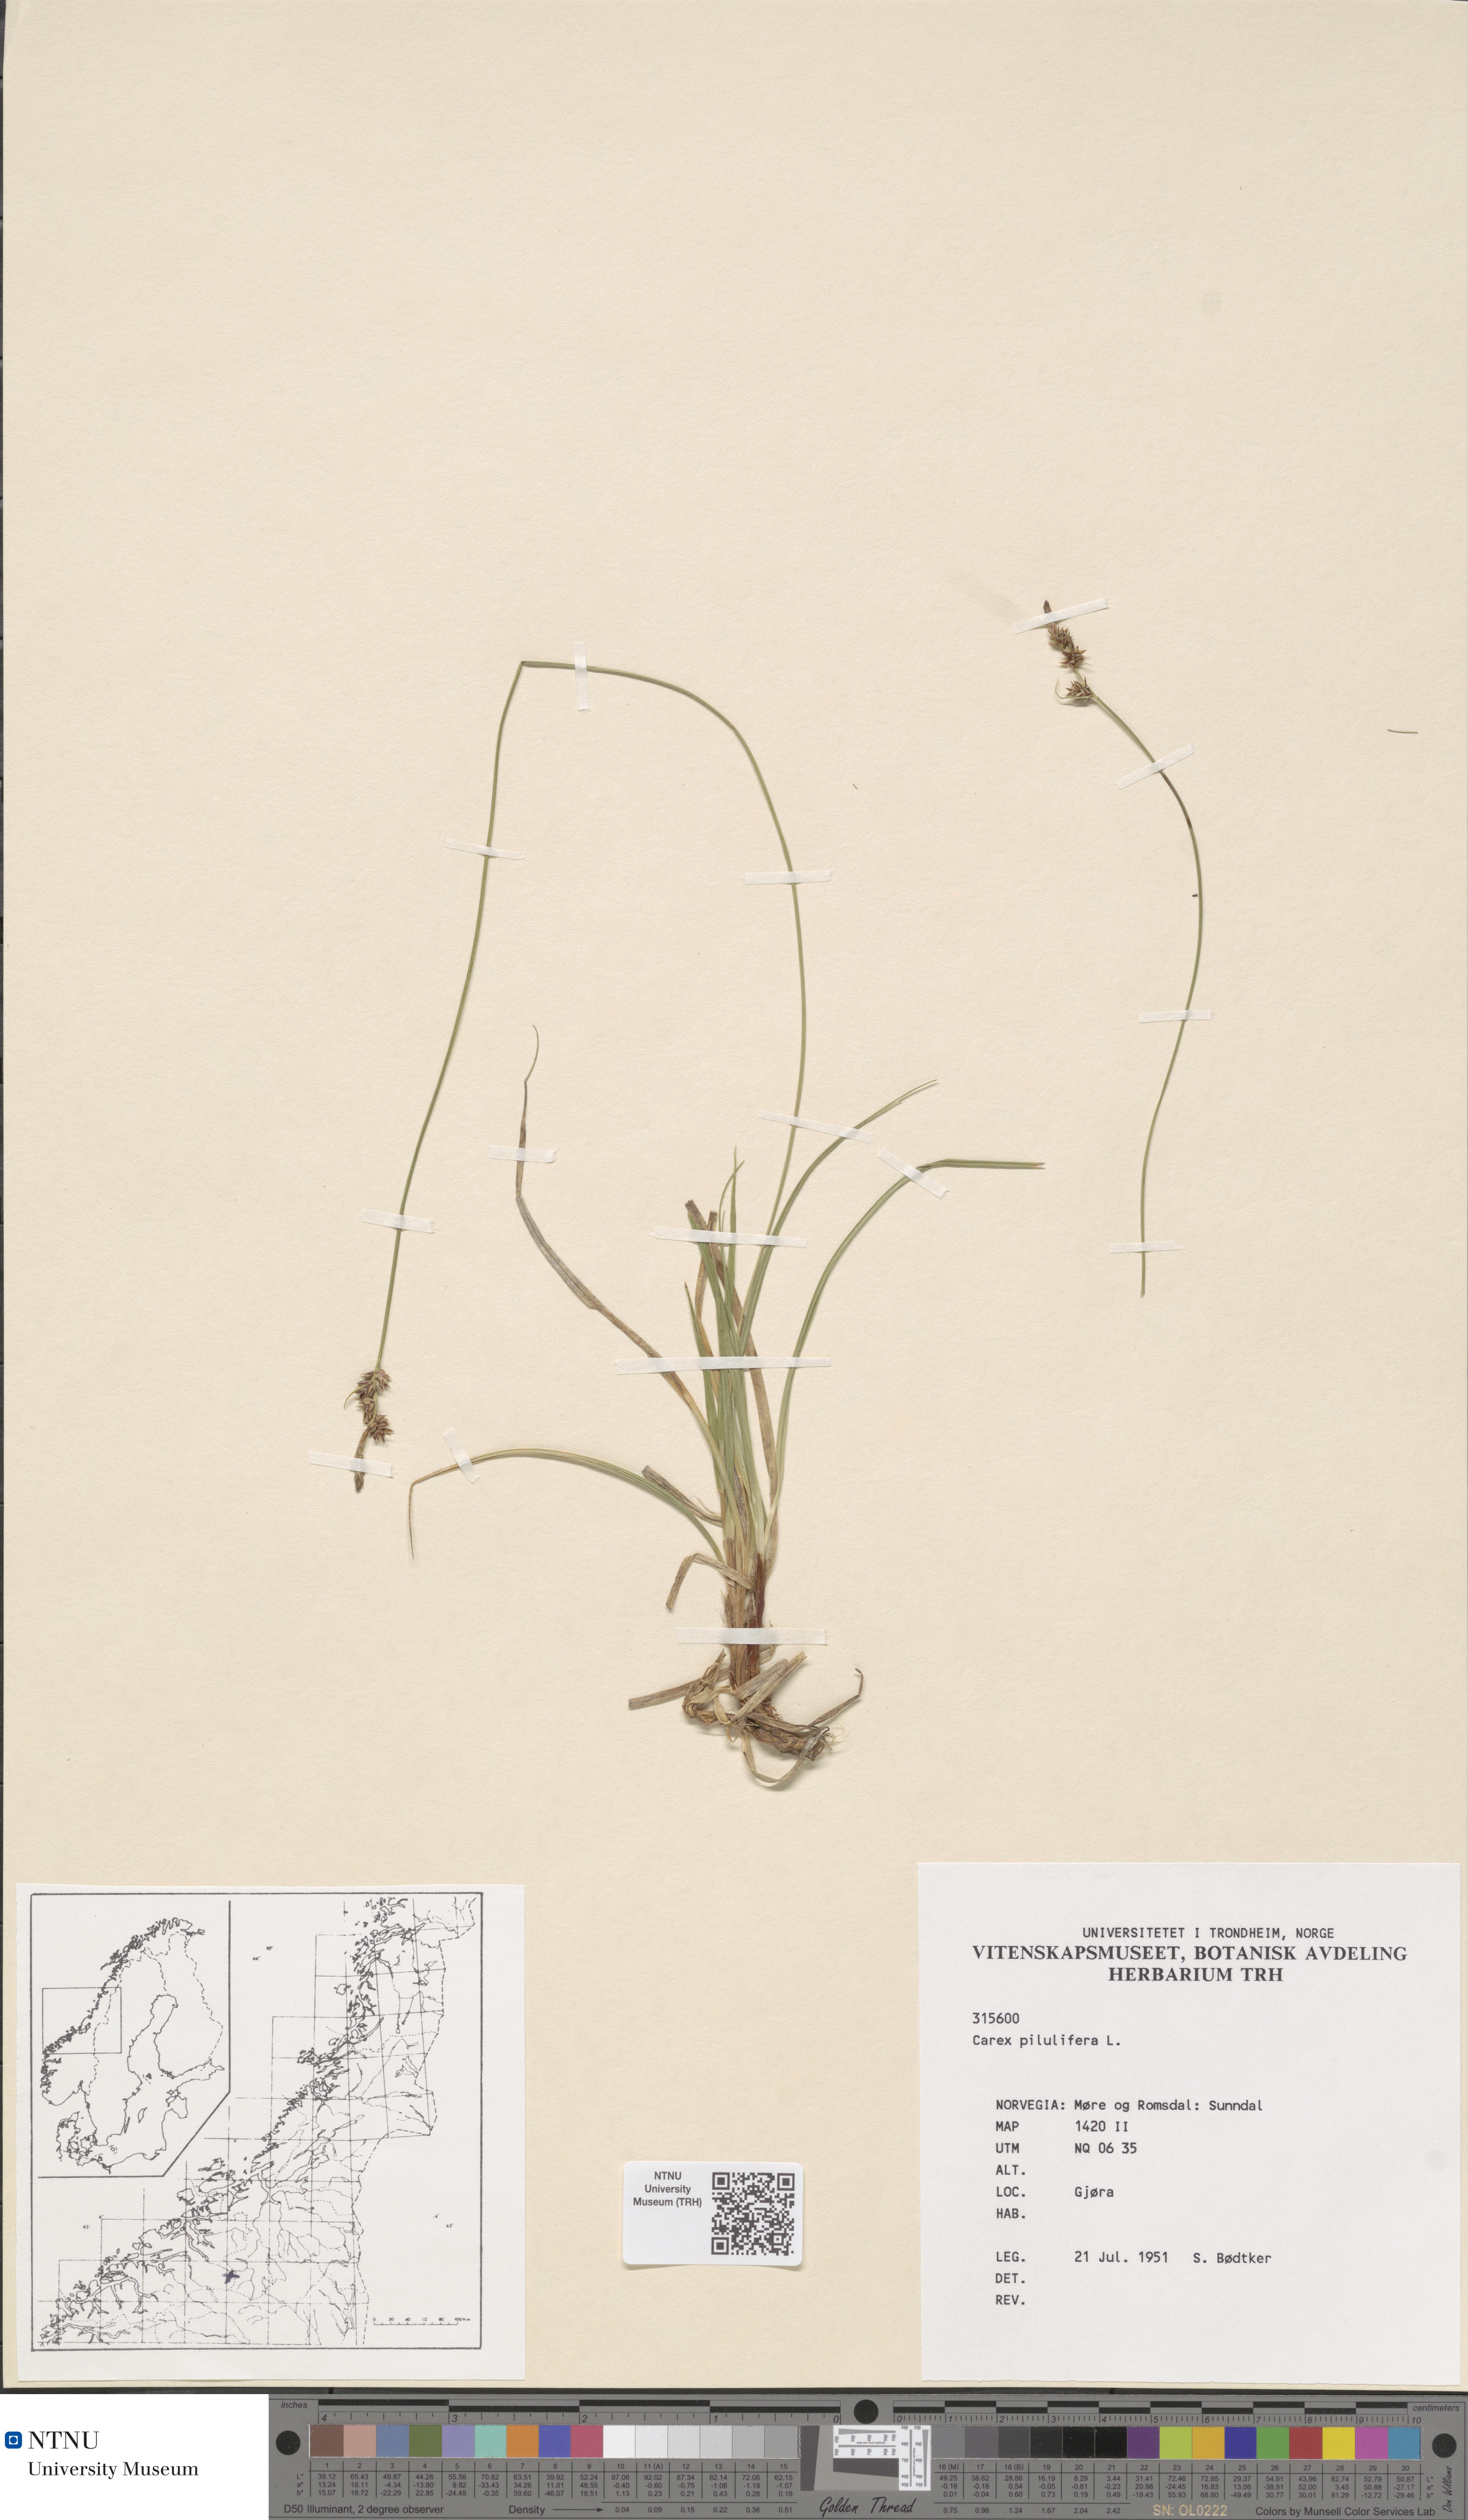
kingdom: Plantae
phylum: Tracheophyta
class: Liliopsida
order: Poales
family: Cyperaceae
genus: Carex
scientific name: Carex pilulifera
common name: Pill sedge
